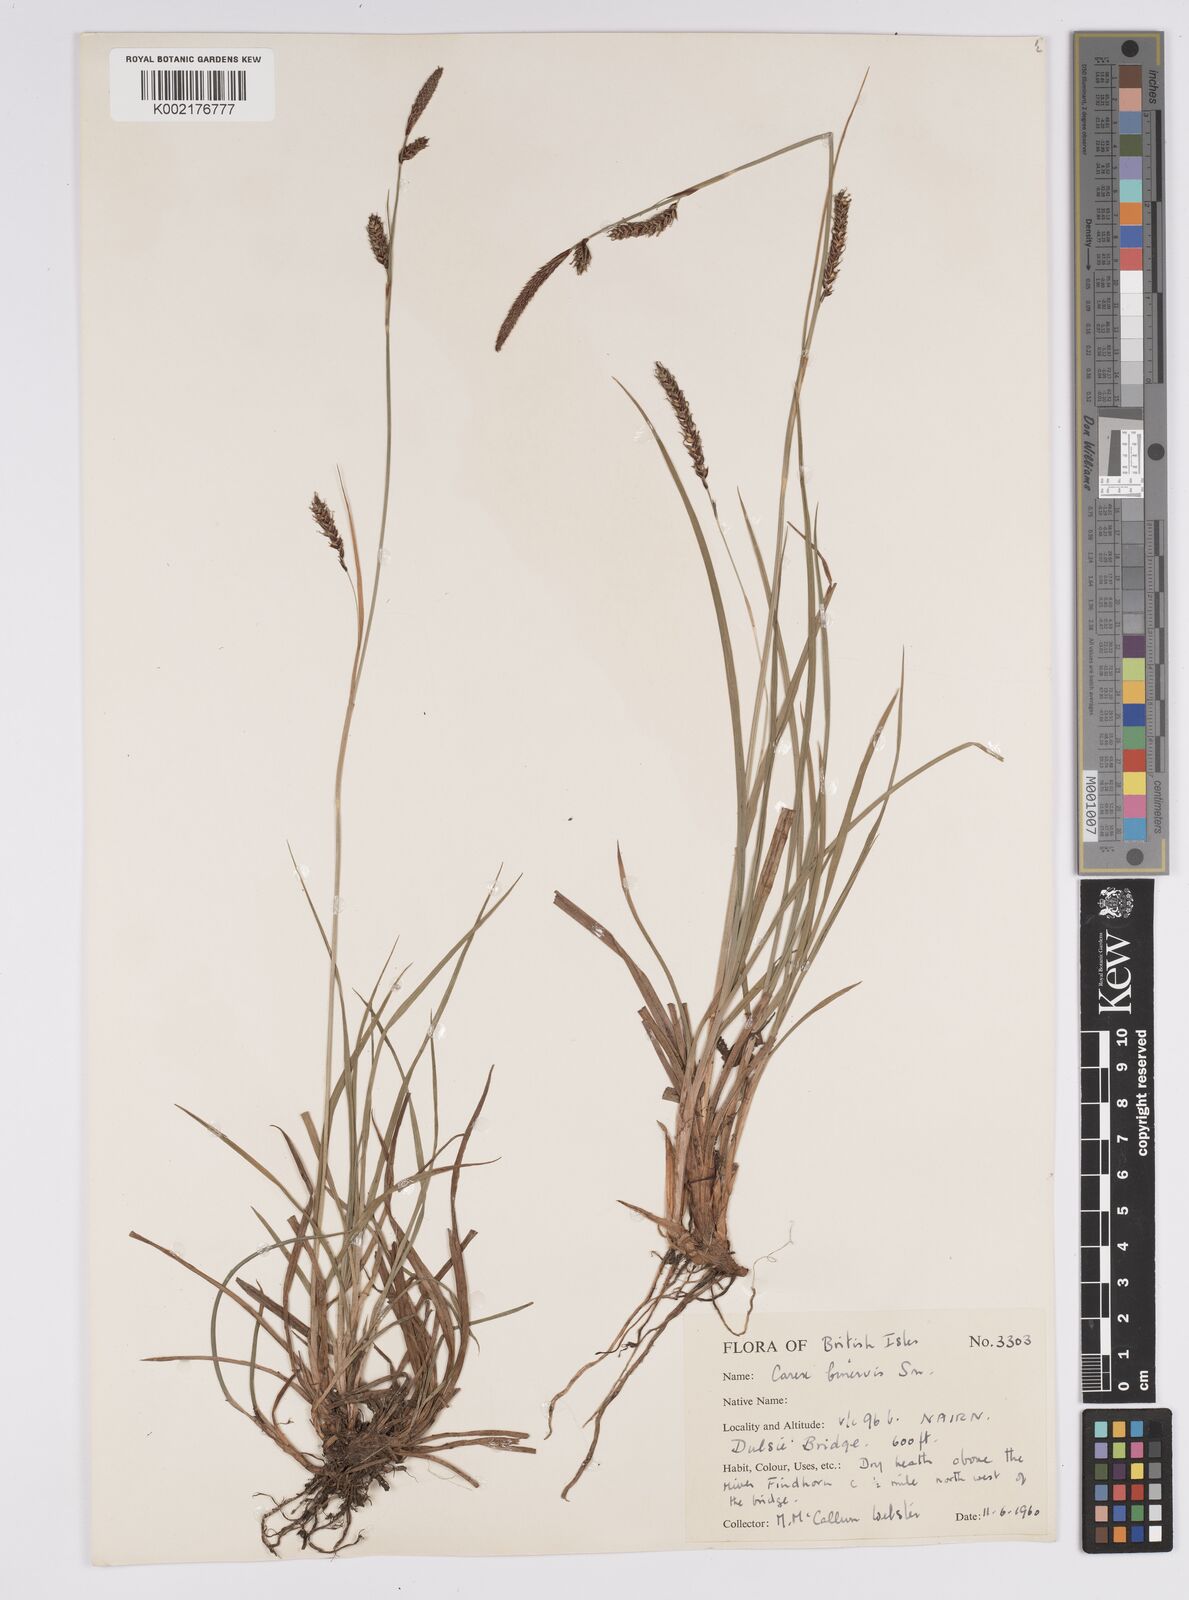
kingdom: Plantae
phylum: Tracheophyta
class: Liliopsida
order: Poales
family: Cyperaceae
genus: Carex
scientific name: Carex binervis
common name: Green-ribbed sedge
